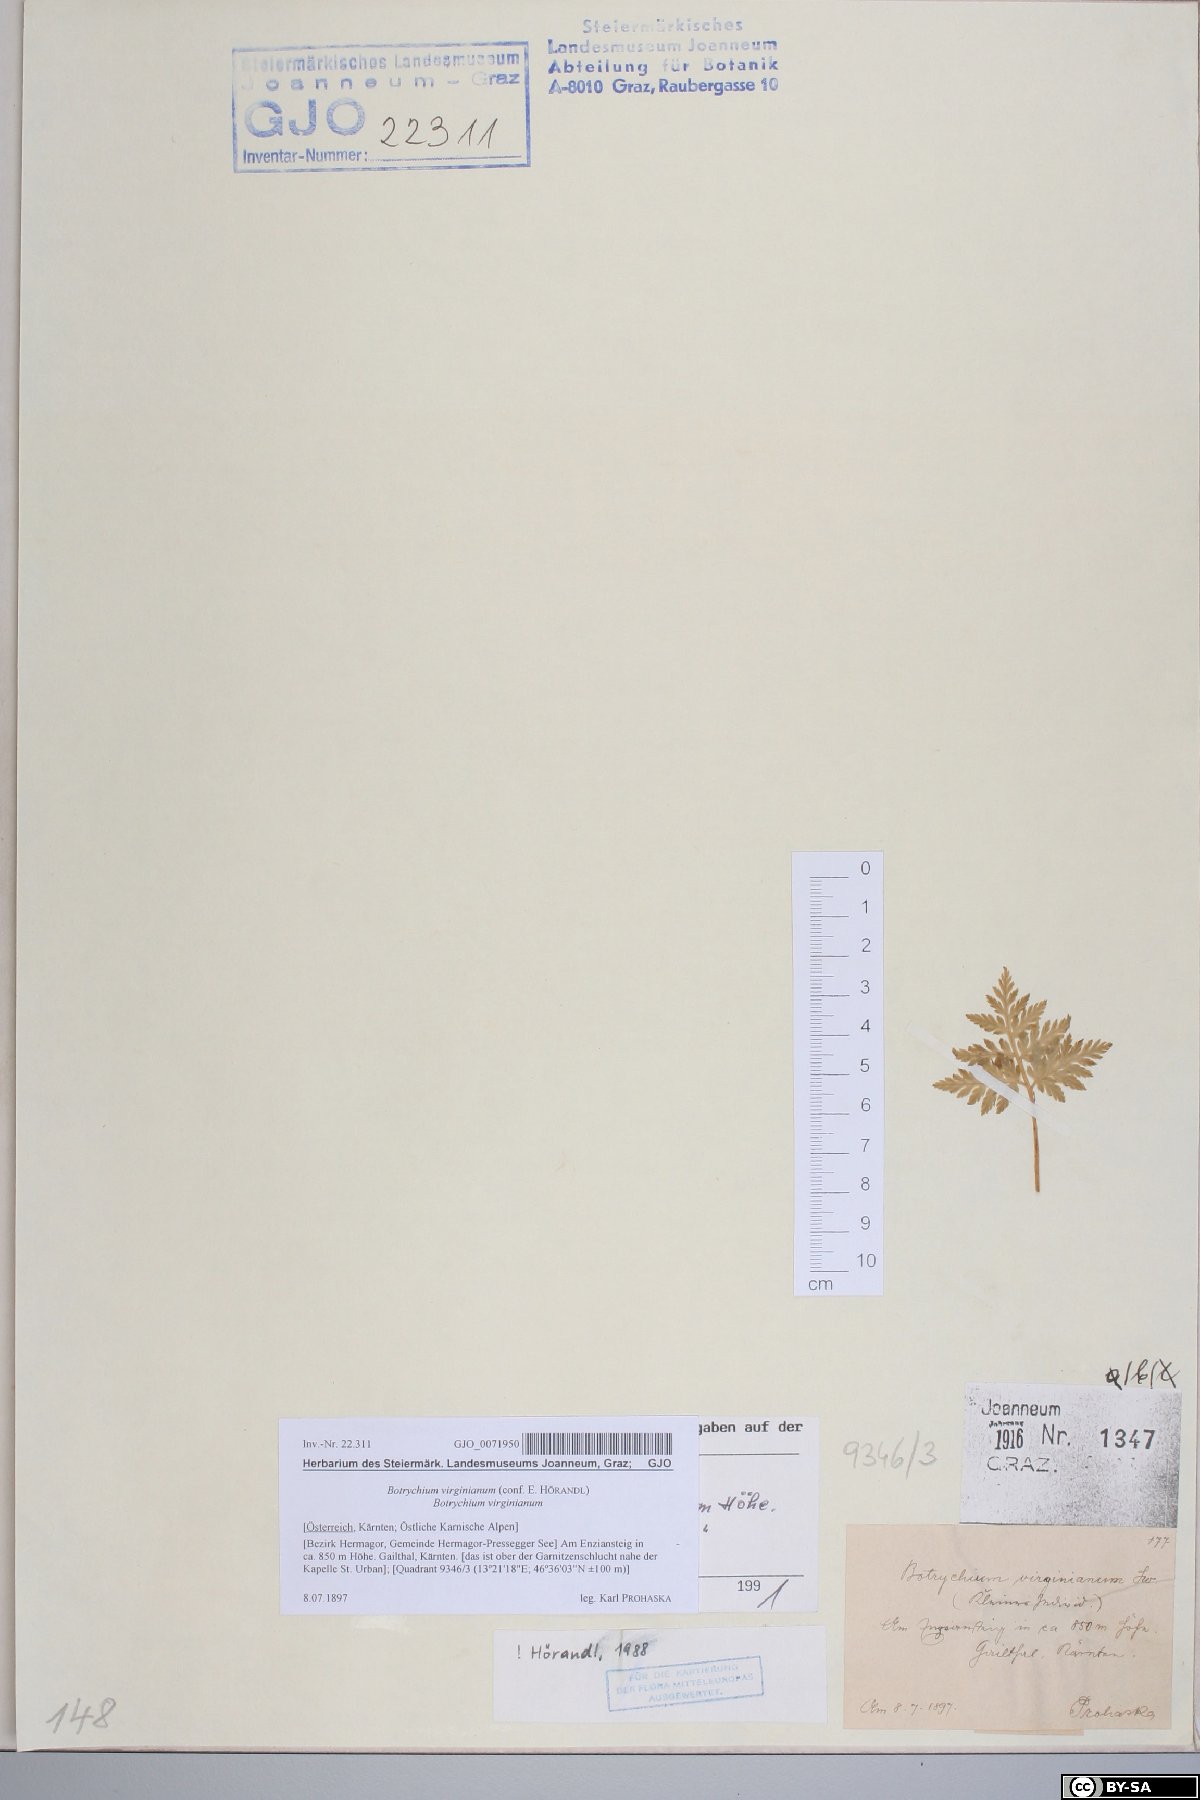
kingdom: Plantae
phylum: Tracheophyta
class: Polypodiopsida
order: Ophioglossales
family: Ophioglossaceae
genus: Botrypus
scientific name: Botrypus virginianus
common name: Common grapefern
